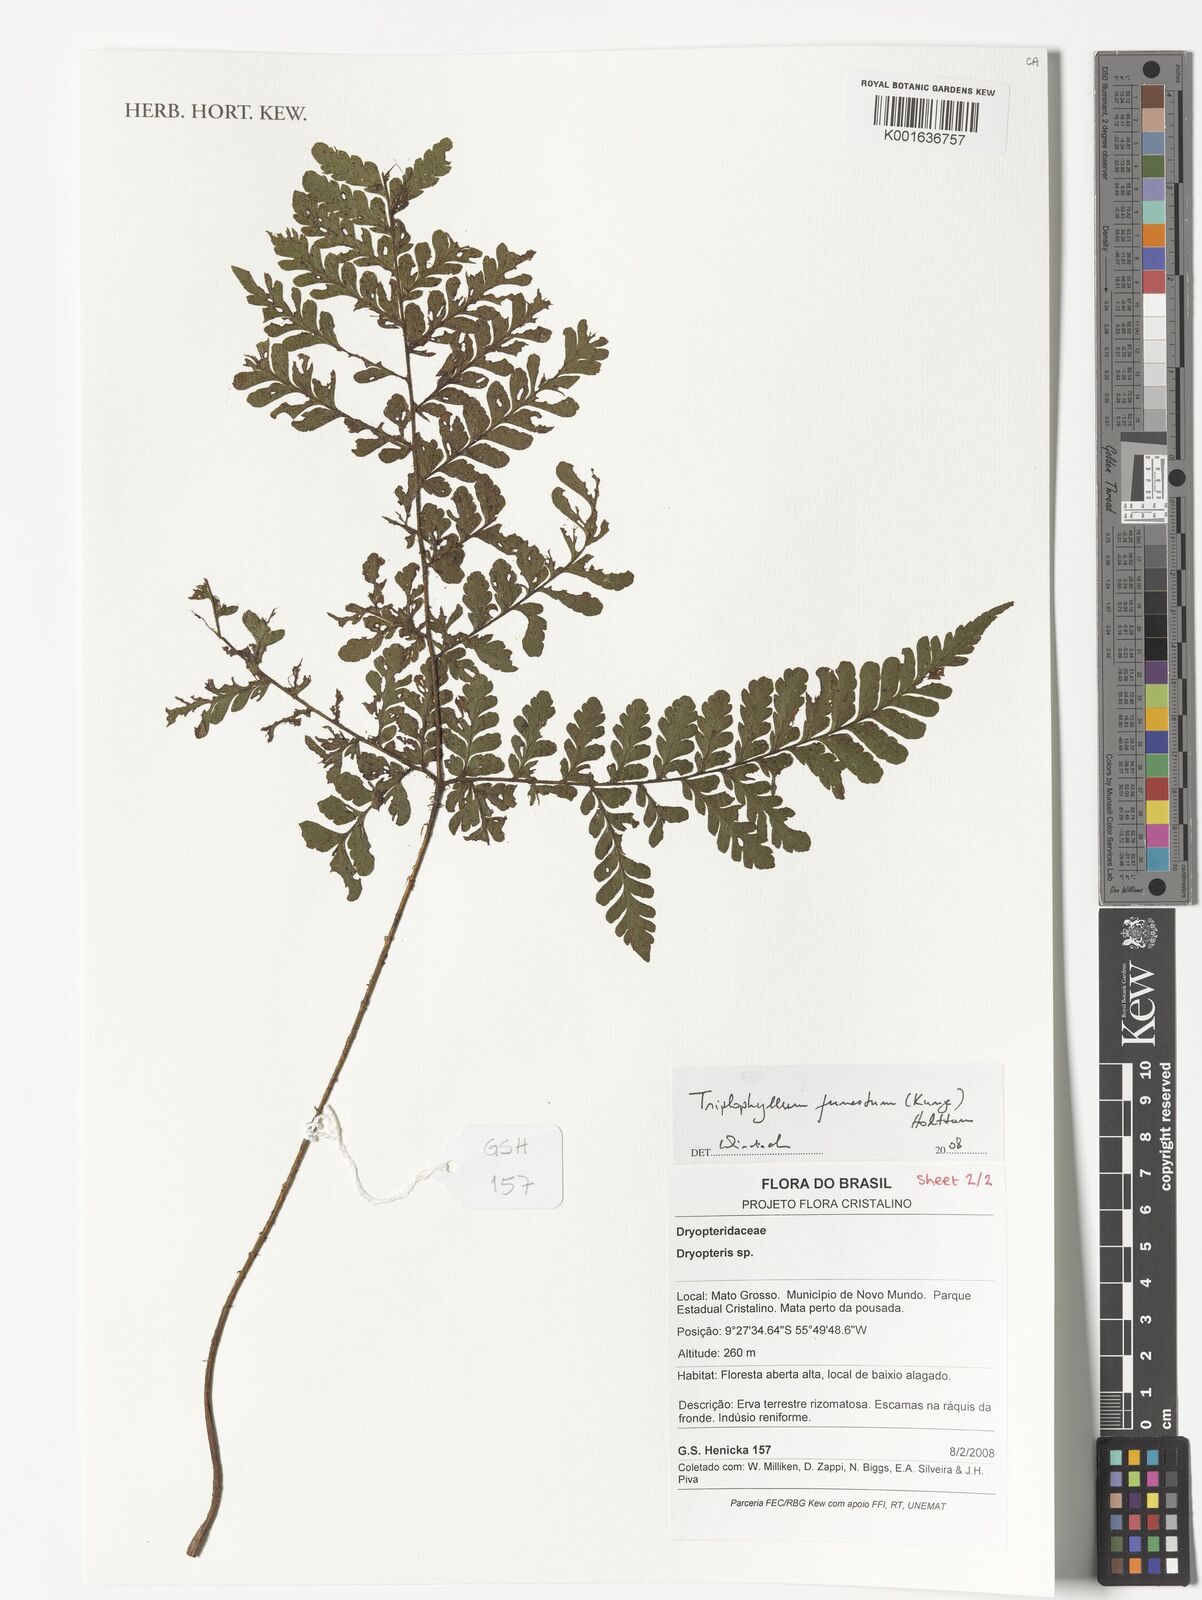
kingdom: Plantae
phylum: Tracheophyta
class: Polypodiopsida
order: Polypodiales
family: Tectariaceae
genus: Triplophyllum
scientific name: Triplophyllum funestum
